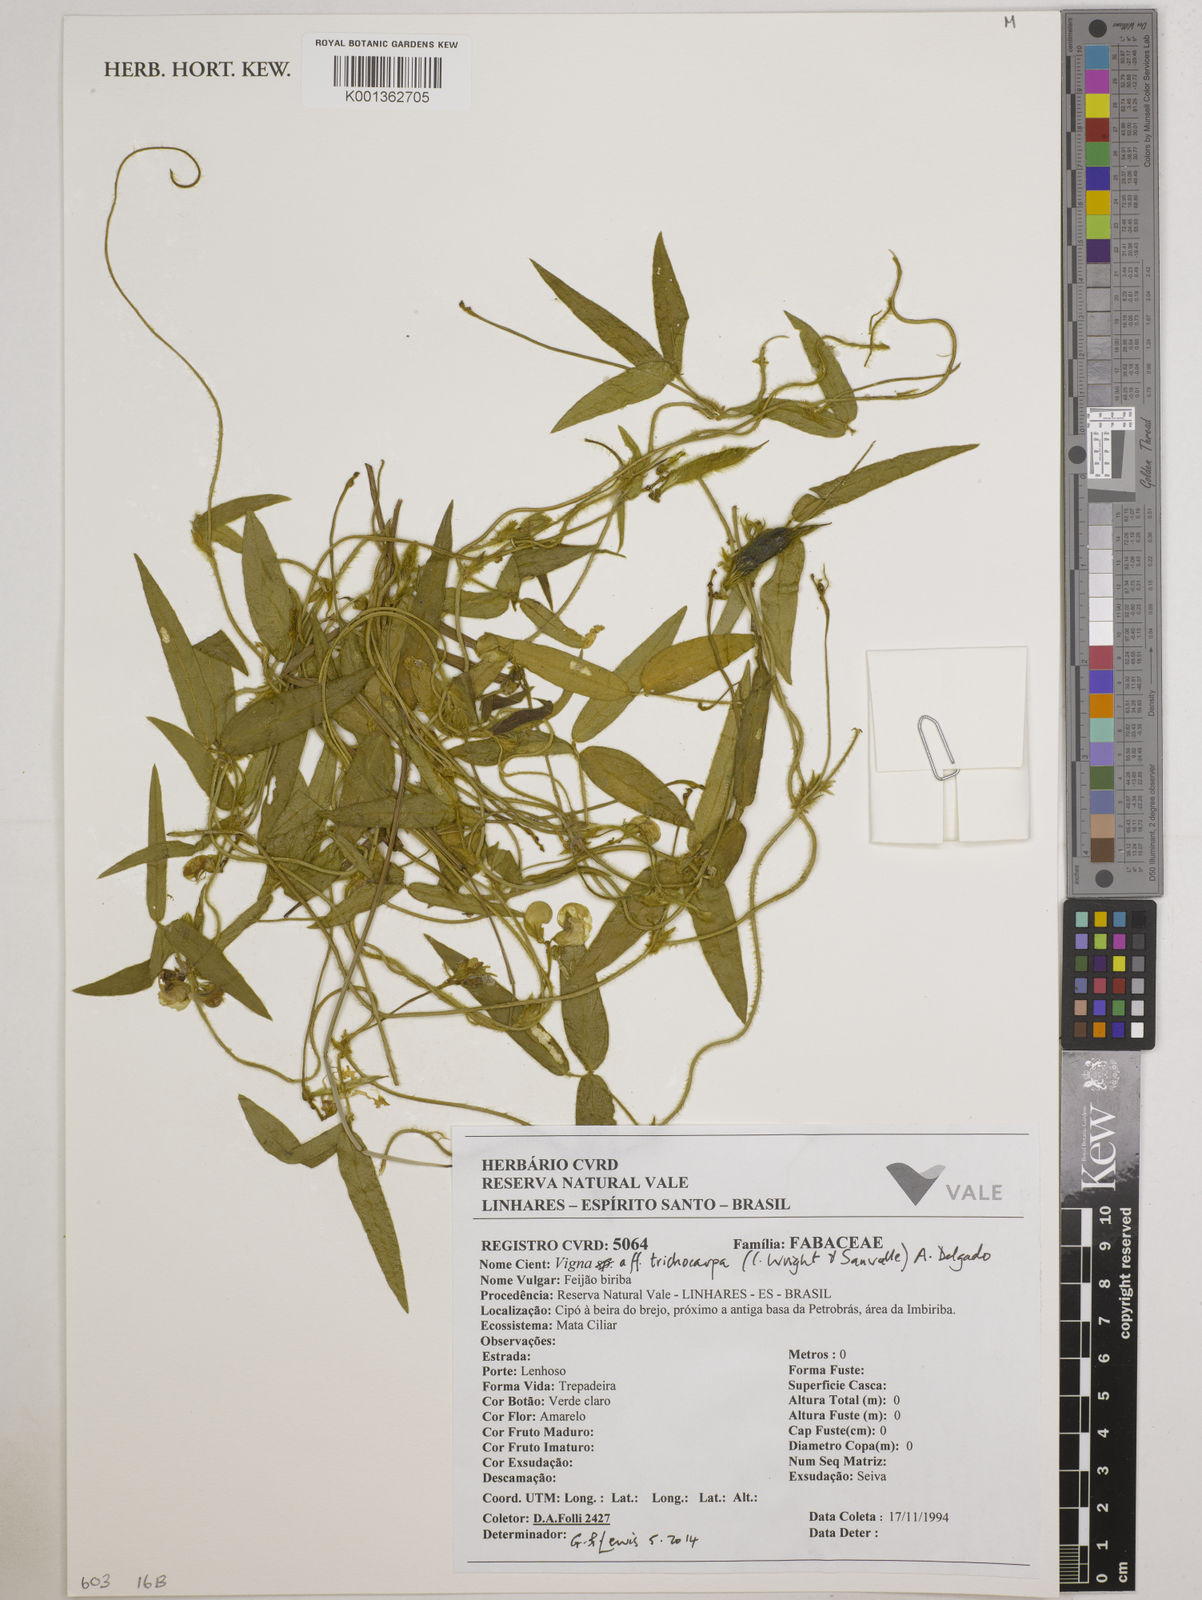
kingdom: Plantae
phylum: Tracheophyta
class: Magnoliopsida
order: Fabales
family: Fabaceae
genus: Vigna
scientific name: Vigna trichocarpa
